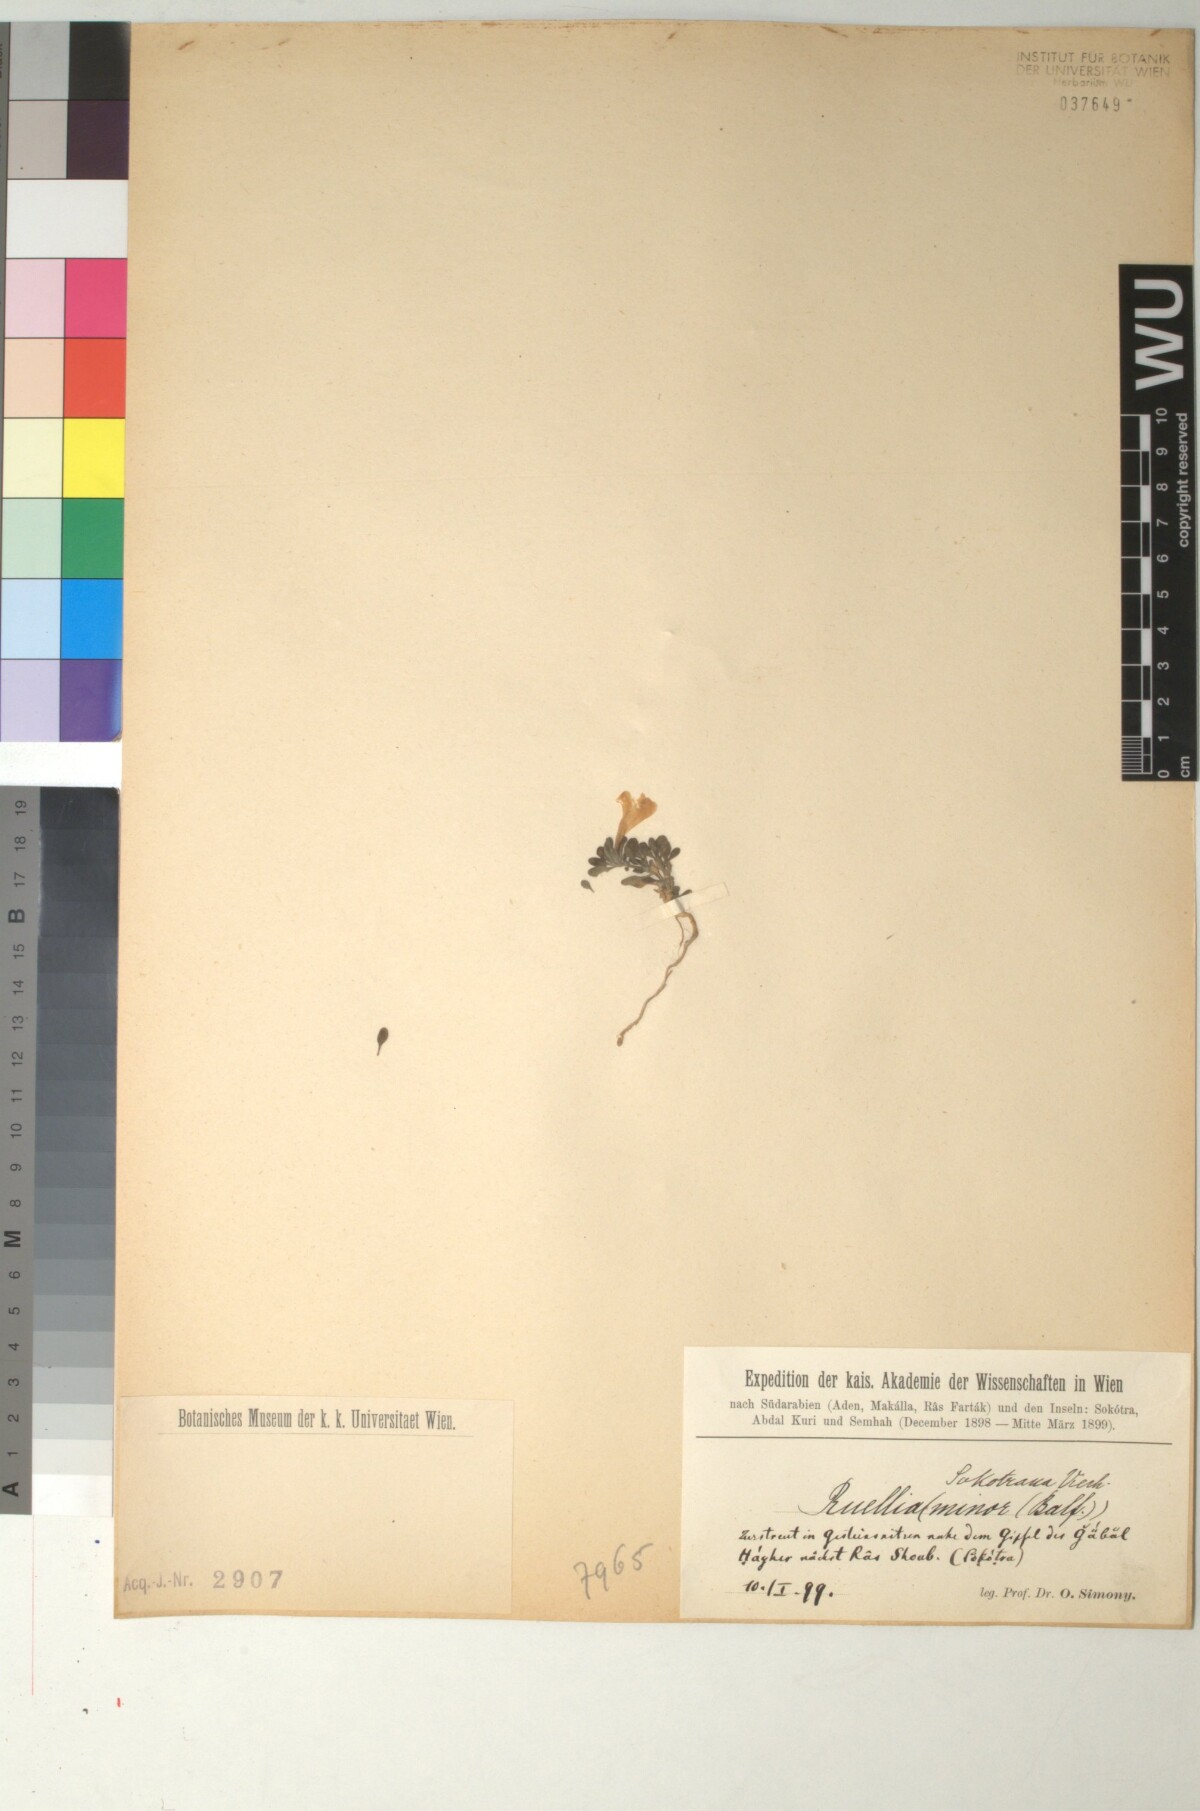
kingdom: Plantae
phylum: Tracheophyta
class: Magnoliopsida
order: Lamiales
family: Acanthaceae
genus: Ruellia
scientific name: Ruellia patula
